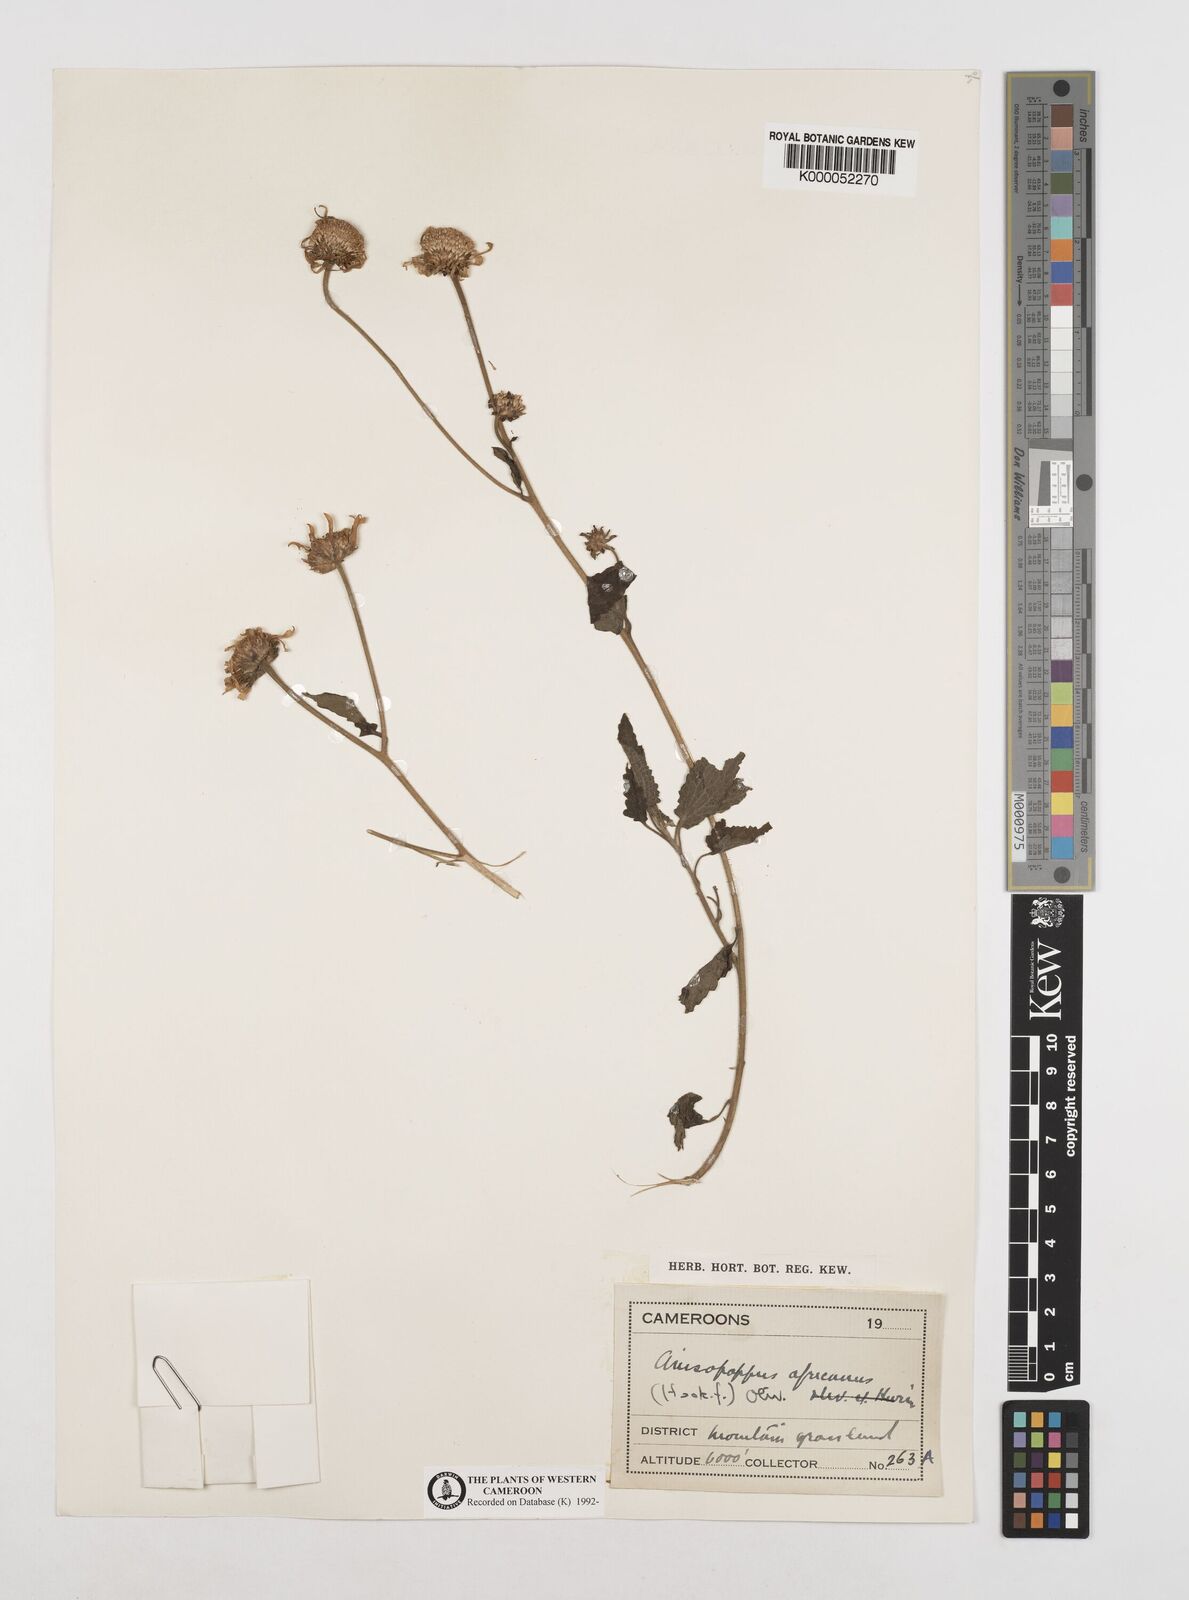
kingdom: Plantae
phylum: Tracheophyta
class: Magnoliopsida
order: Asterales
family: Asteraceae
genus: Anisopappus
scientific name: Anisopappus chinensis
